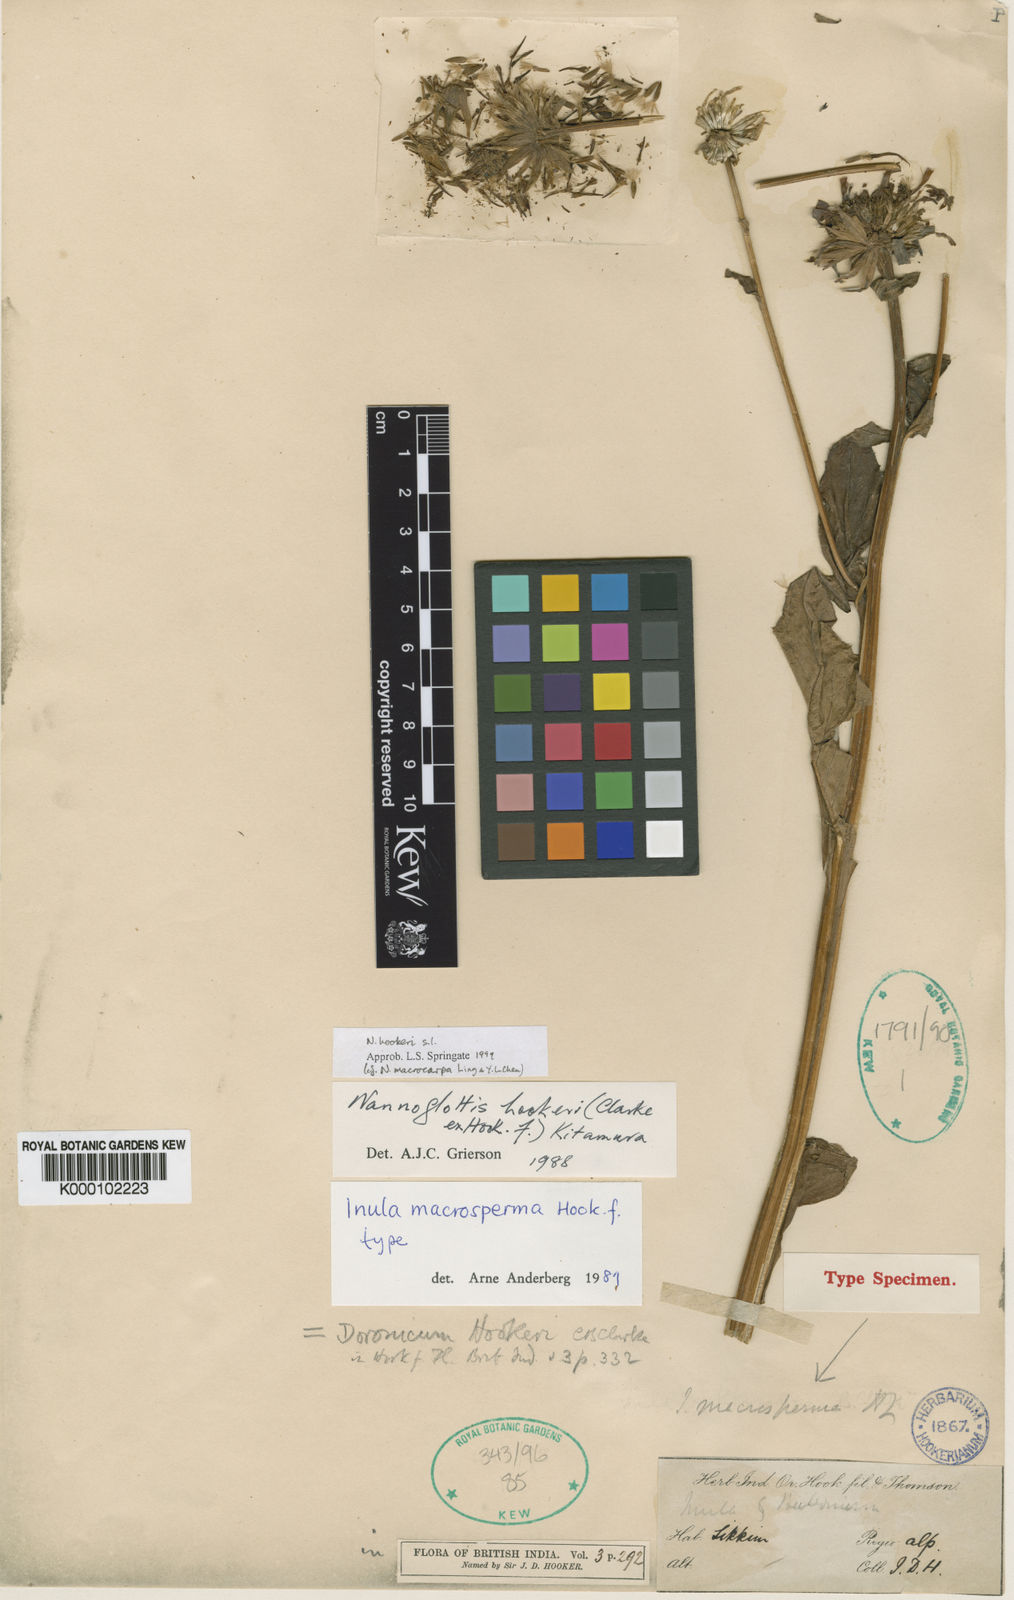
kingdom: Plantae
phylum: Tracheophyta
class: Magnoliopsida
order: Asterales
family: Asteraceae
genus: Nannoglottis
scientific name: Nannoglottis hookeri
